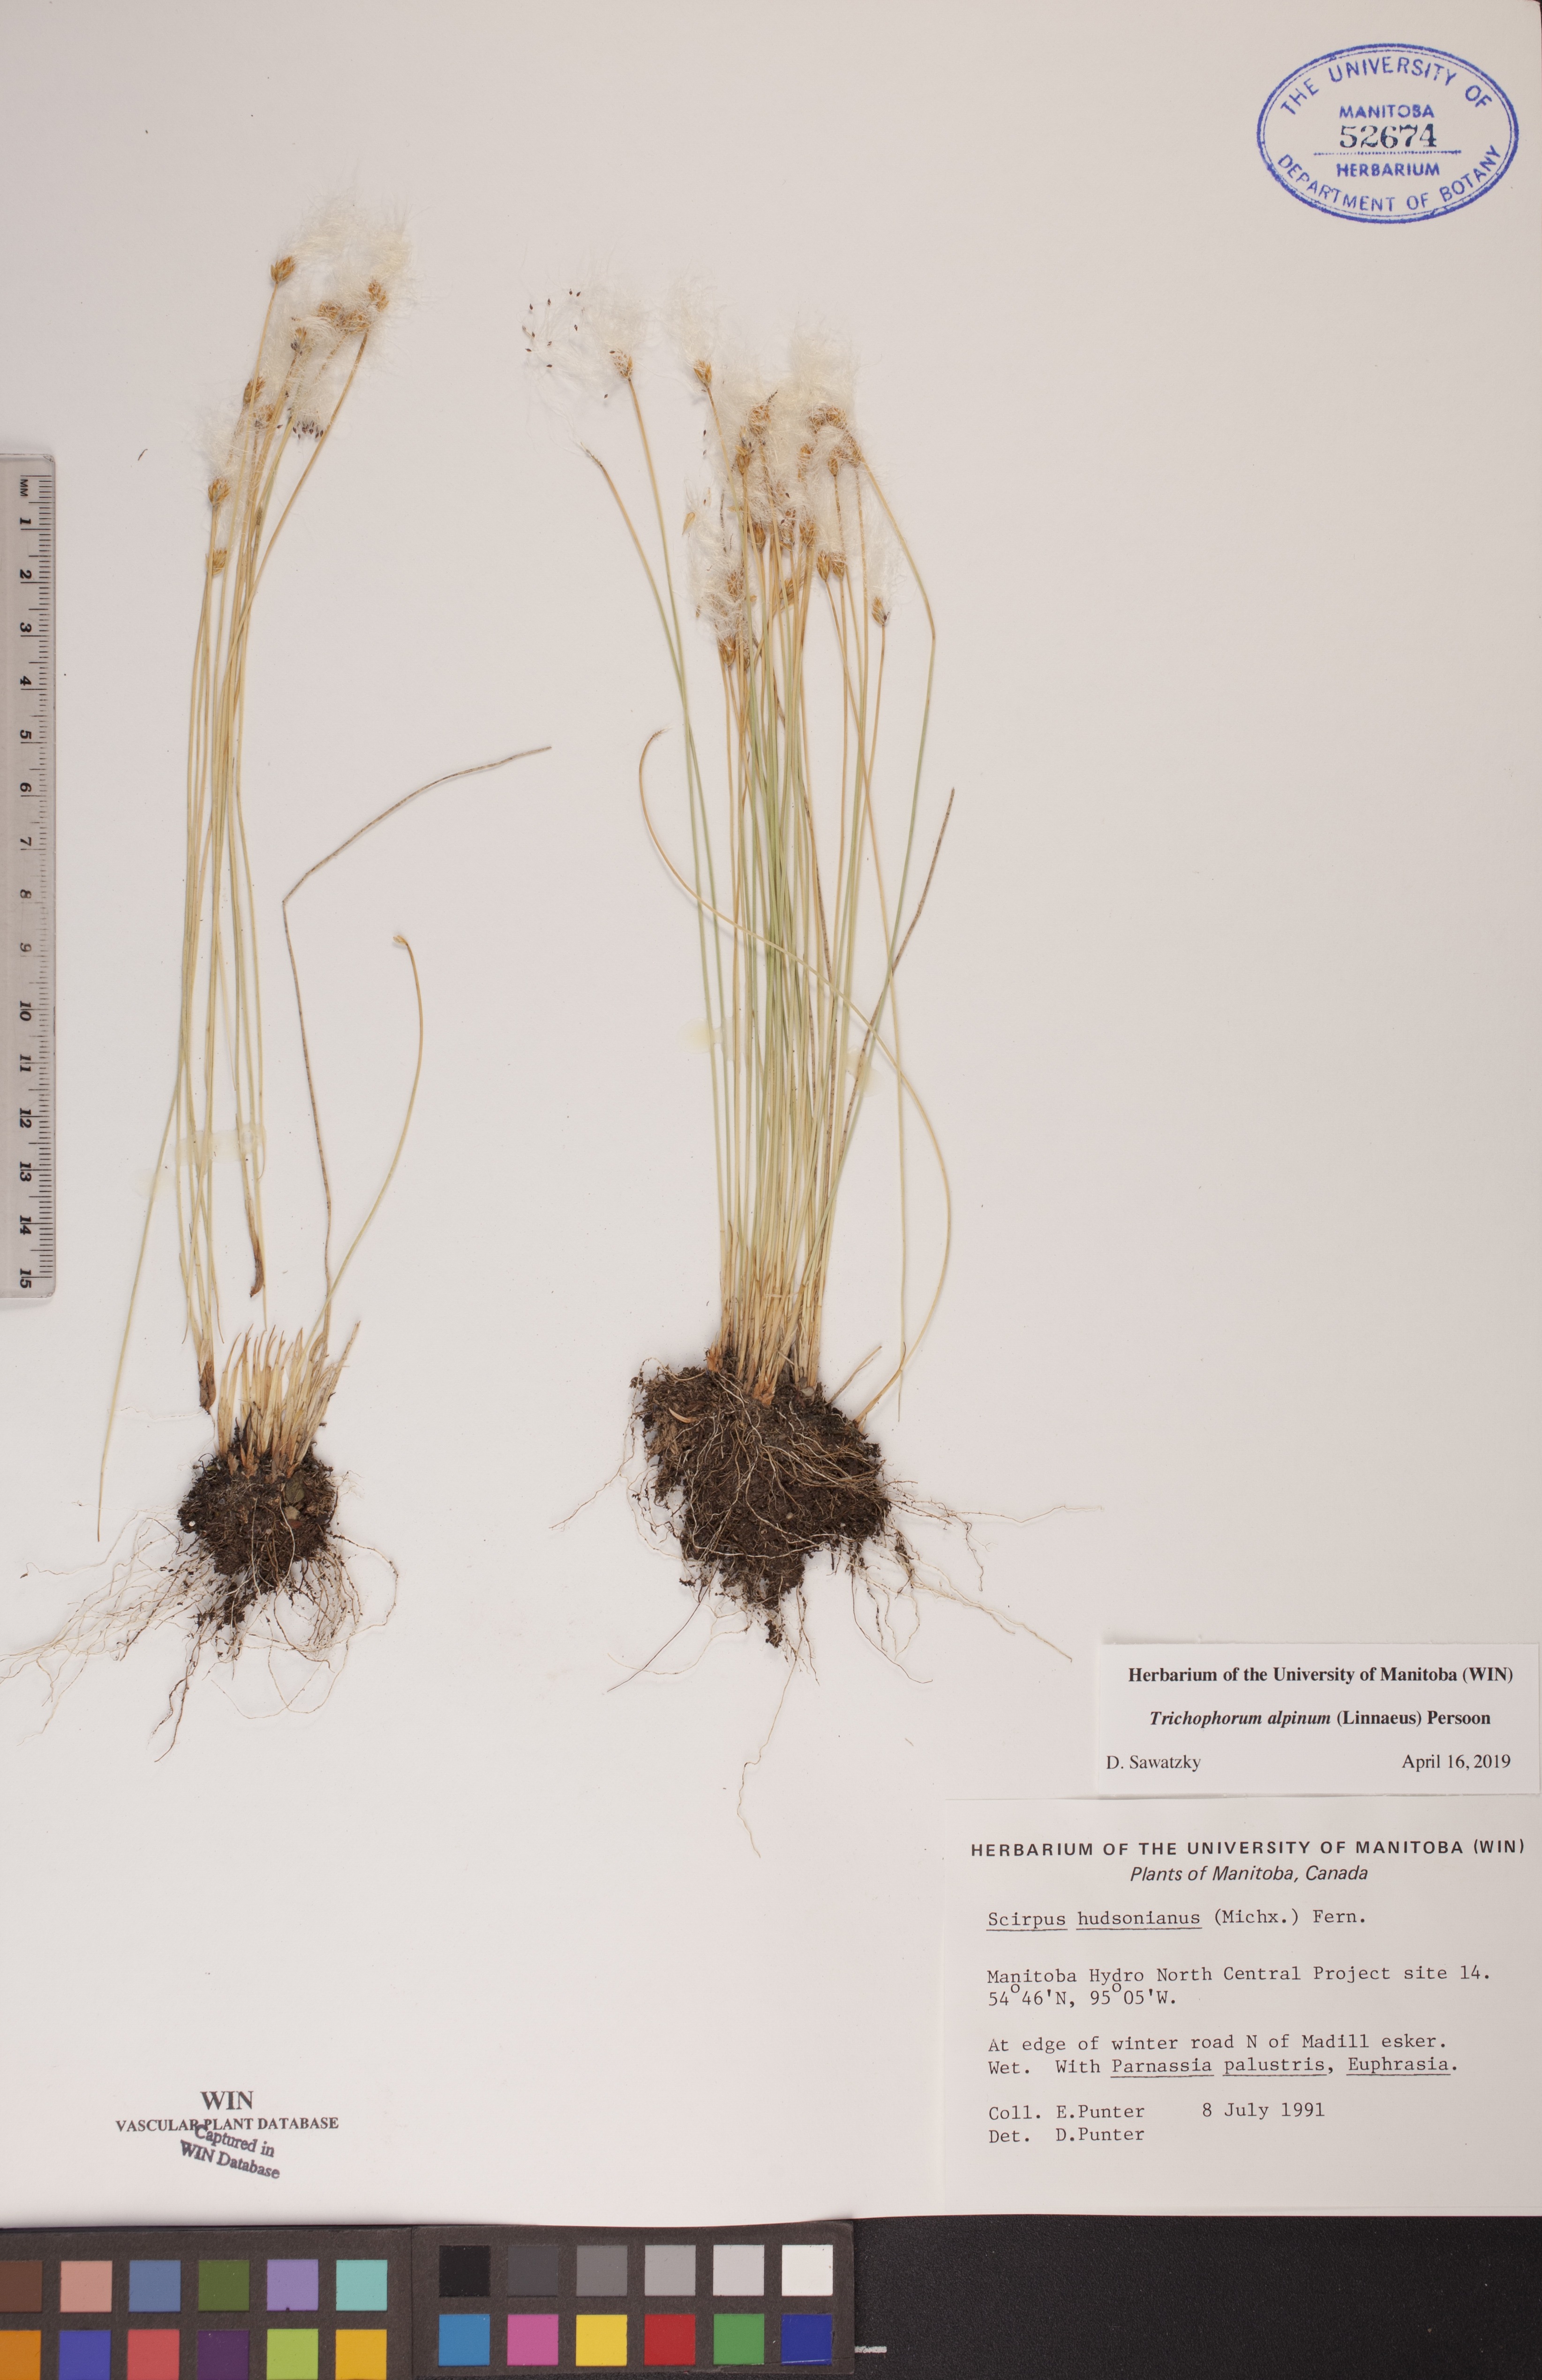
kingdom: Plantae
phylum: Tracheophyta
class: Liliopsida
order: Poales
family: Cyperaceae
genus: Trichophorum
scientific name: Trichophorum alpinum
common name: Alpine bulrush
